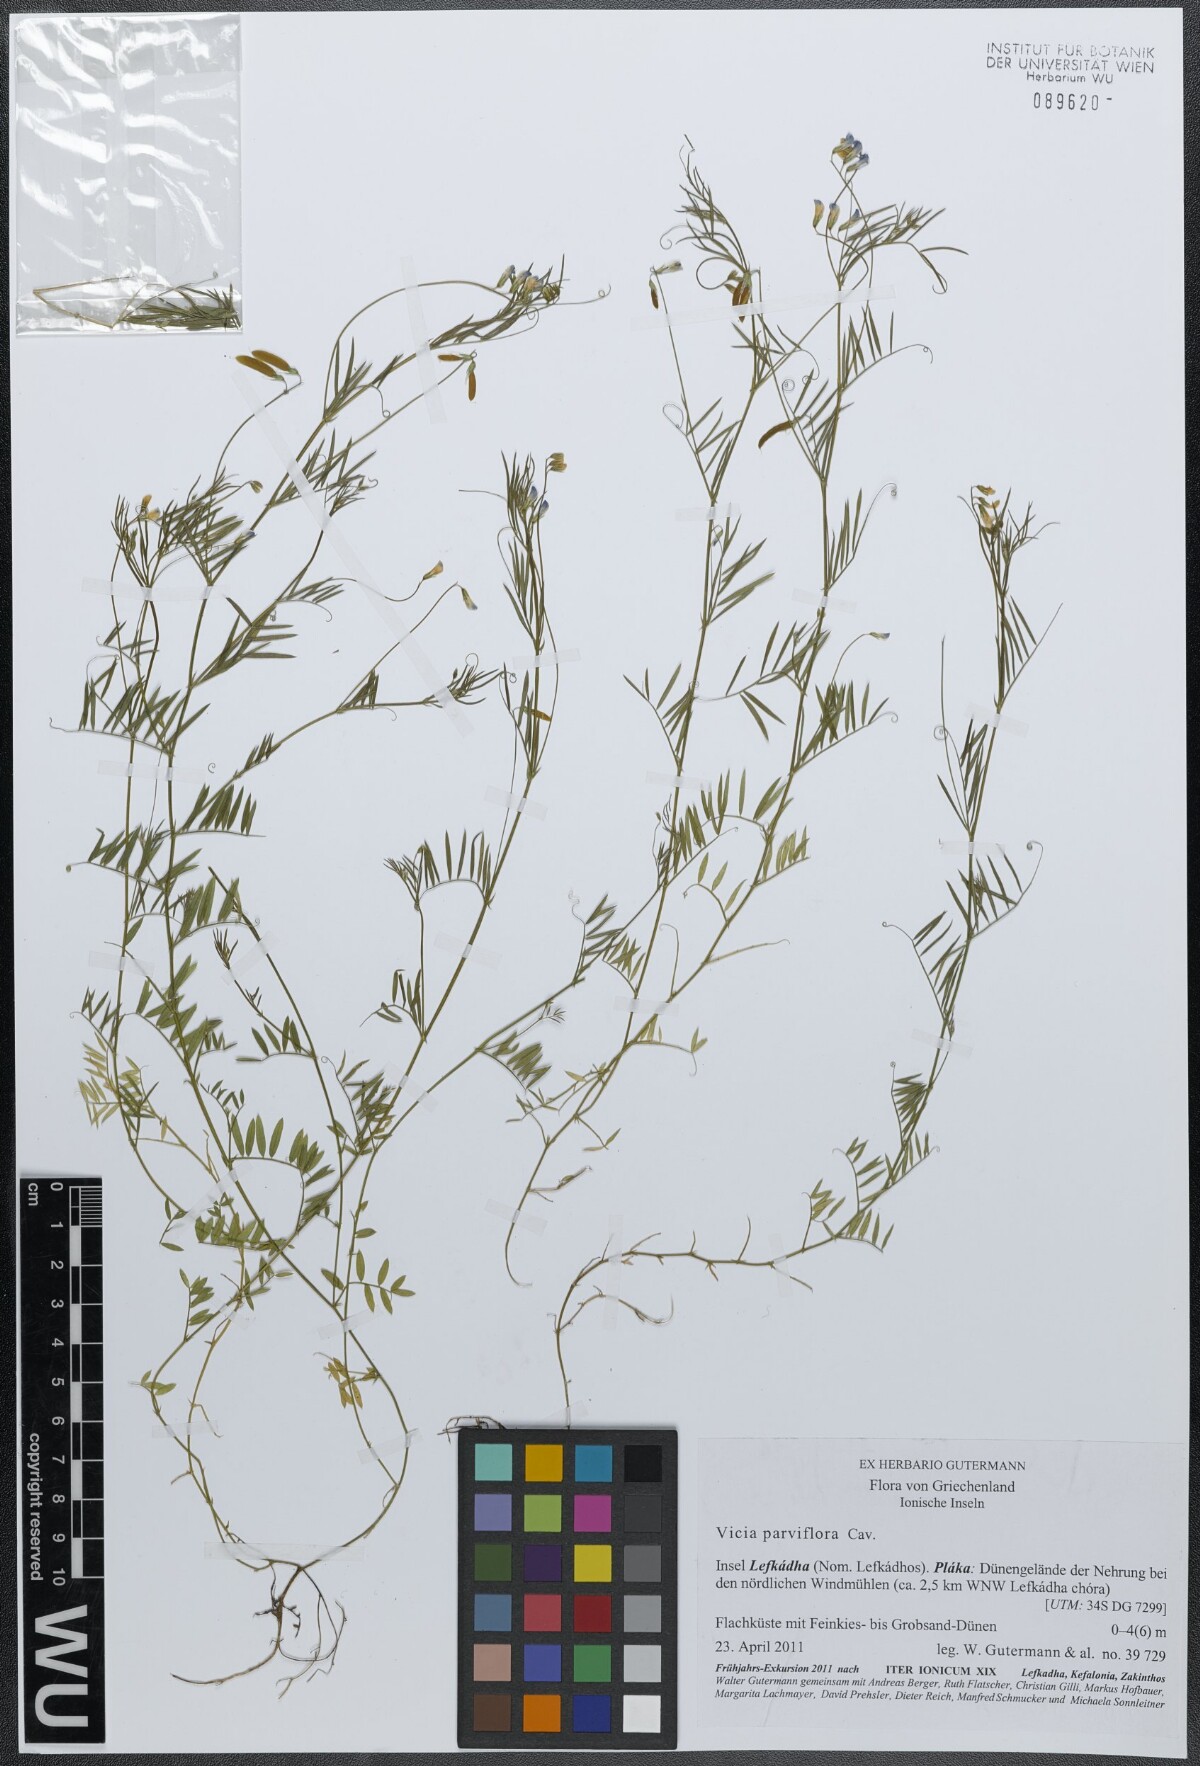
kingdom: Plantae
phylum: Tracheophyta
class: Magnoliopsida
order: Fabales
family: Fabaceae
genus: Vicia
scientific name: Vicia parviflora
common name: Slender tare
